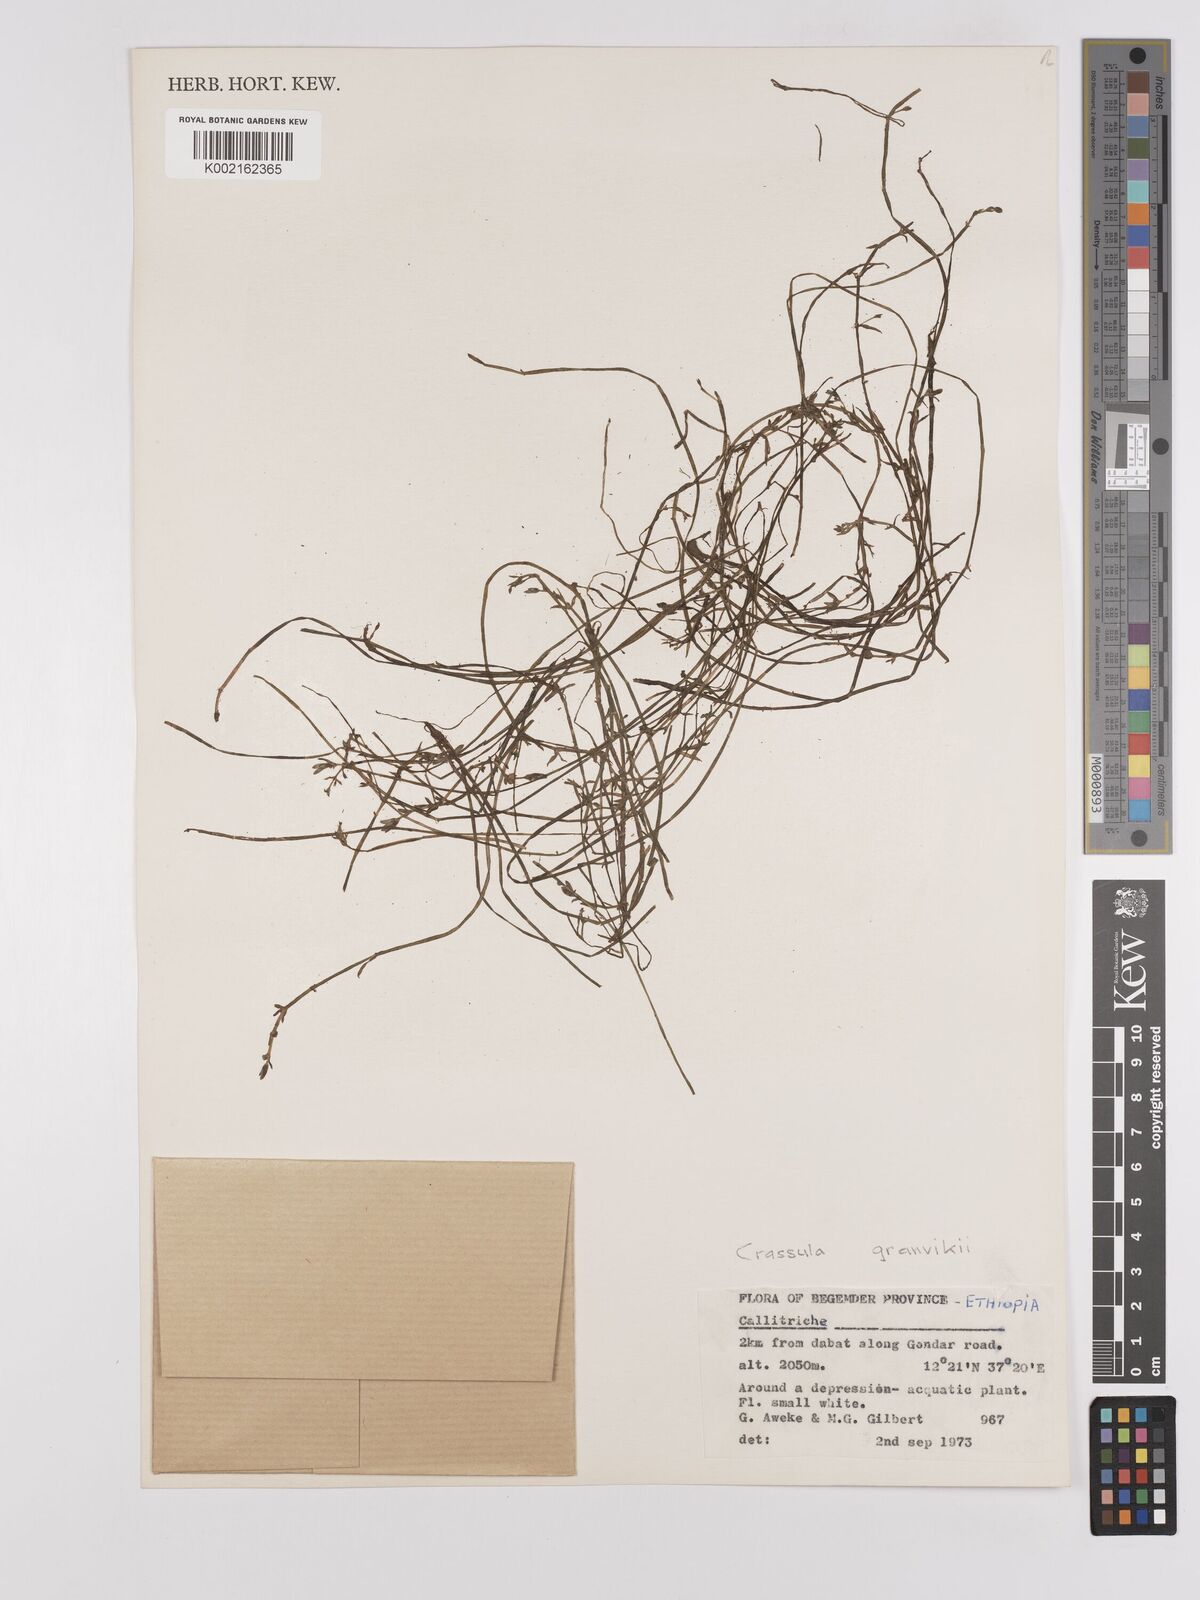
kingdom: Plantae
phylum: Tracheophyta
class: Magnoliopsida
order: Saxifragales
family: Crassulaceae
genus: Crassula
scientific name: Crassula granvikii
